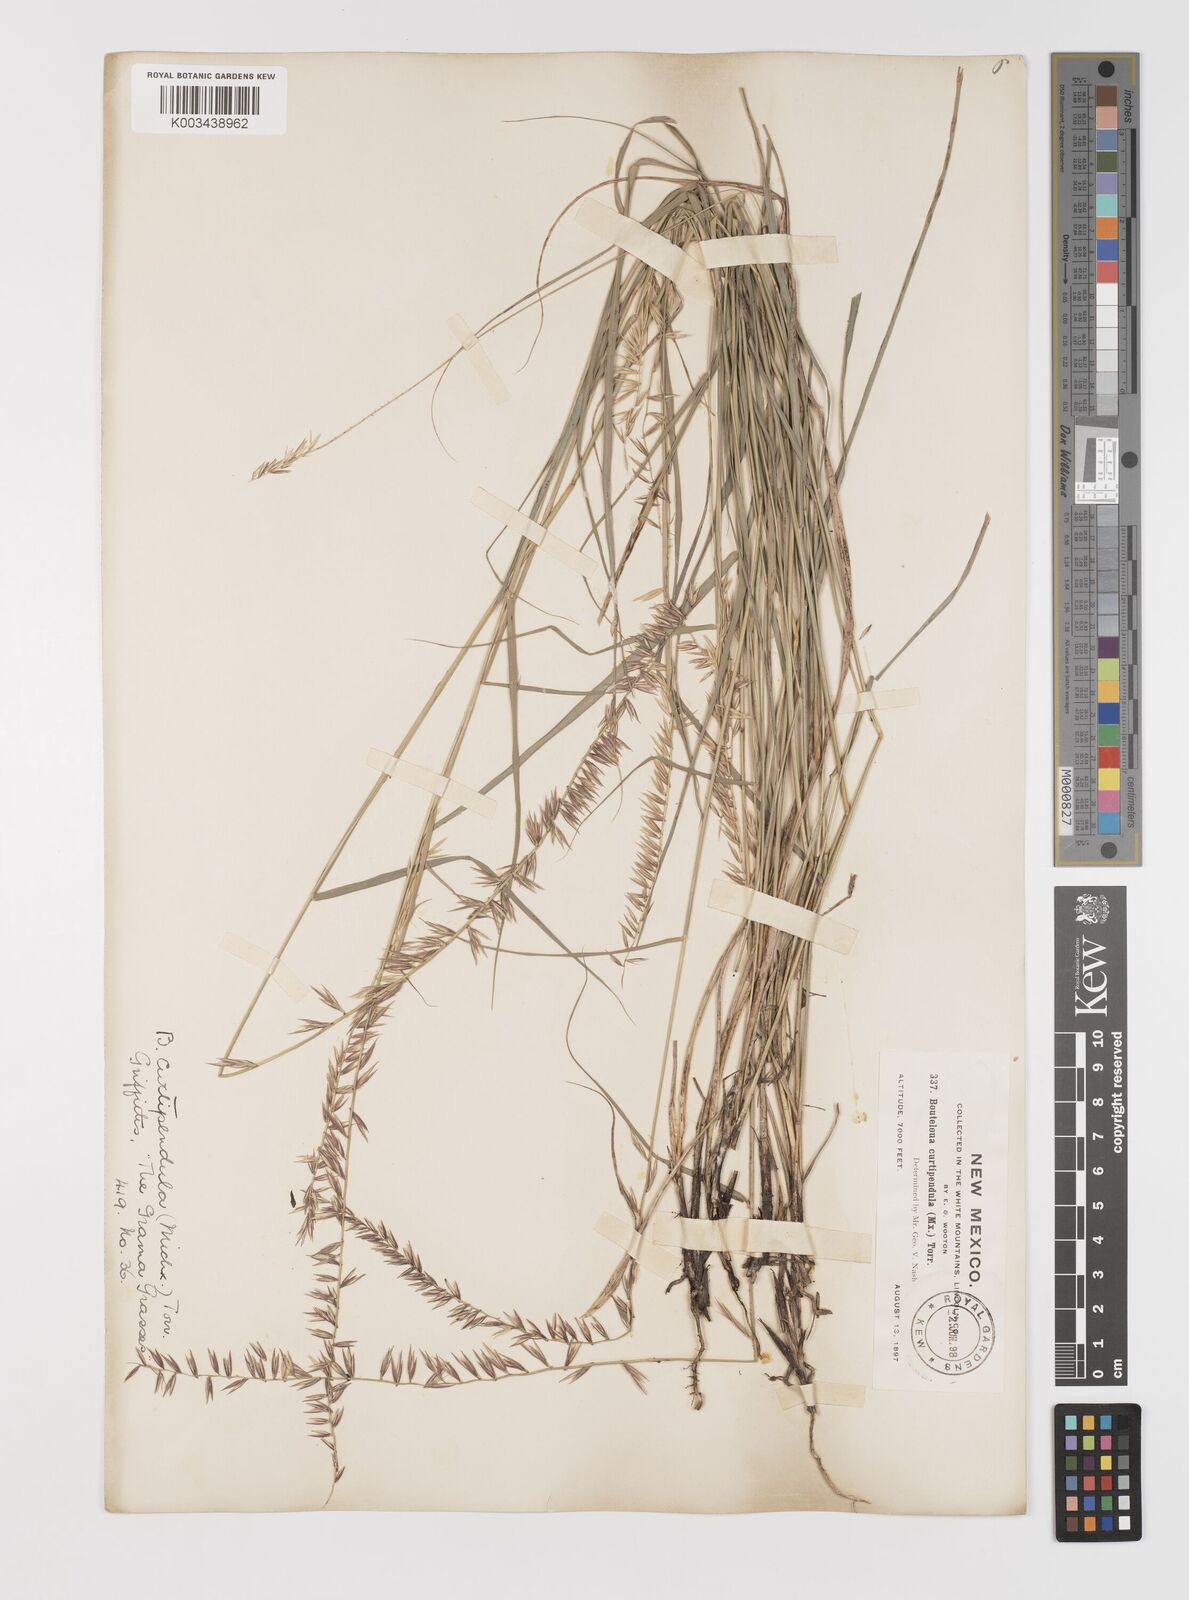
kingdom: Plantae
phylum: Tracheophyta
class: Liliopsida
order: Poales
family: Poaceae
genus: Bouteloua
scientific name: Bouteloua curtipendula
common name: Side-oats grama
